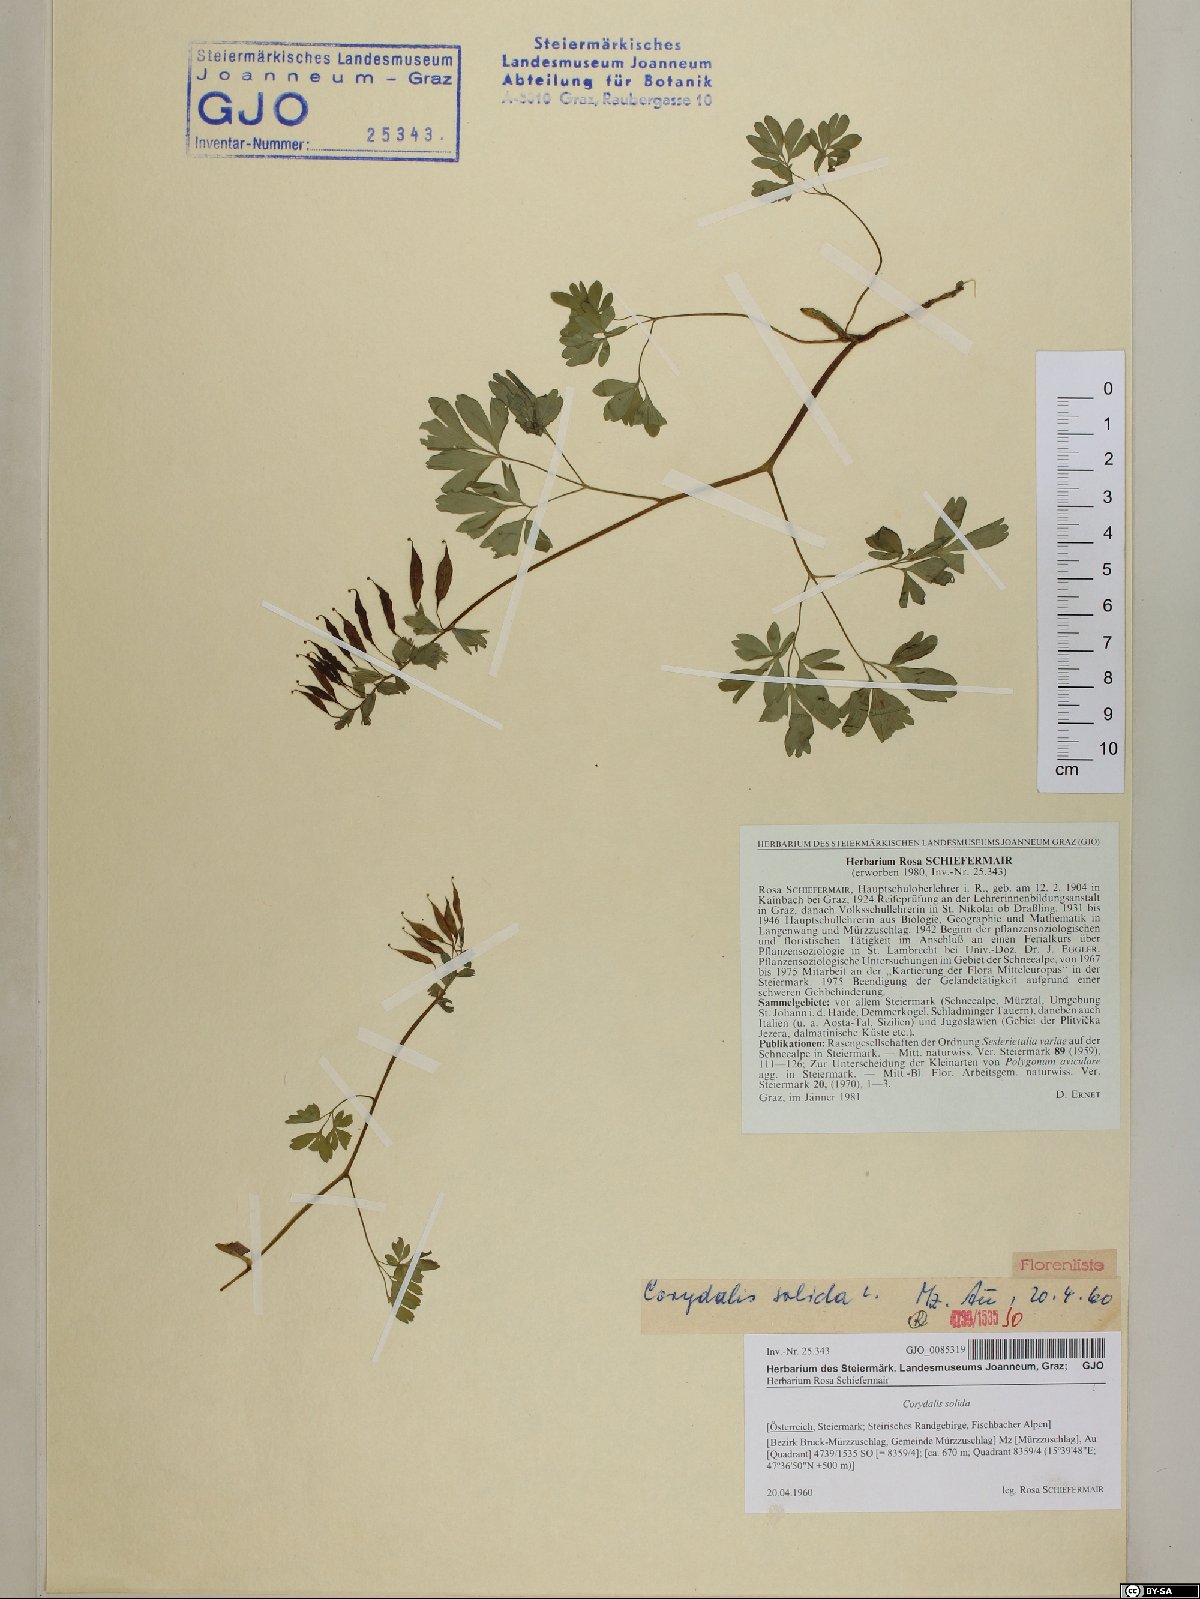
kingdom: Plantae
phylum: Tracheophyta
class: Magnoliopsida
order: Ranunculales
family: Papaveraceae
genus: Corydalis
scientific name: Corydalis solida
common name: Bird-in-a-bush
